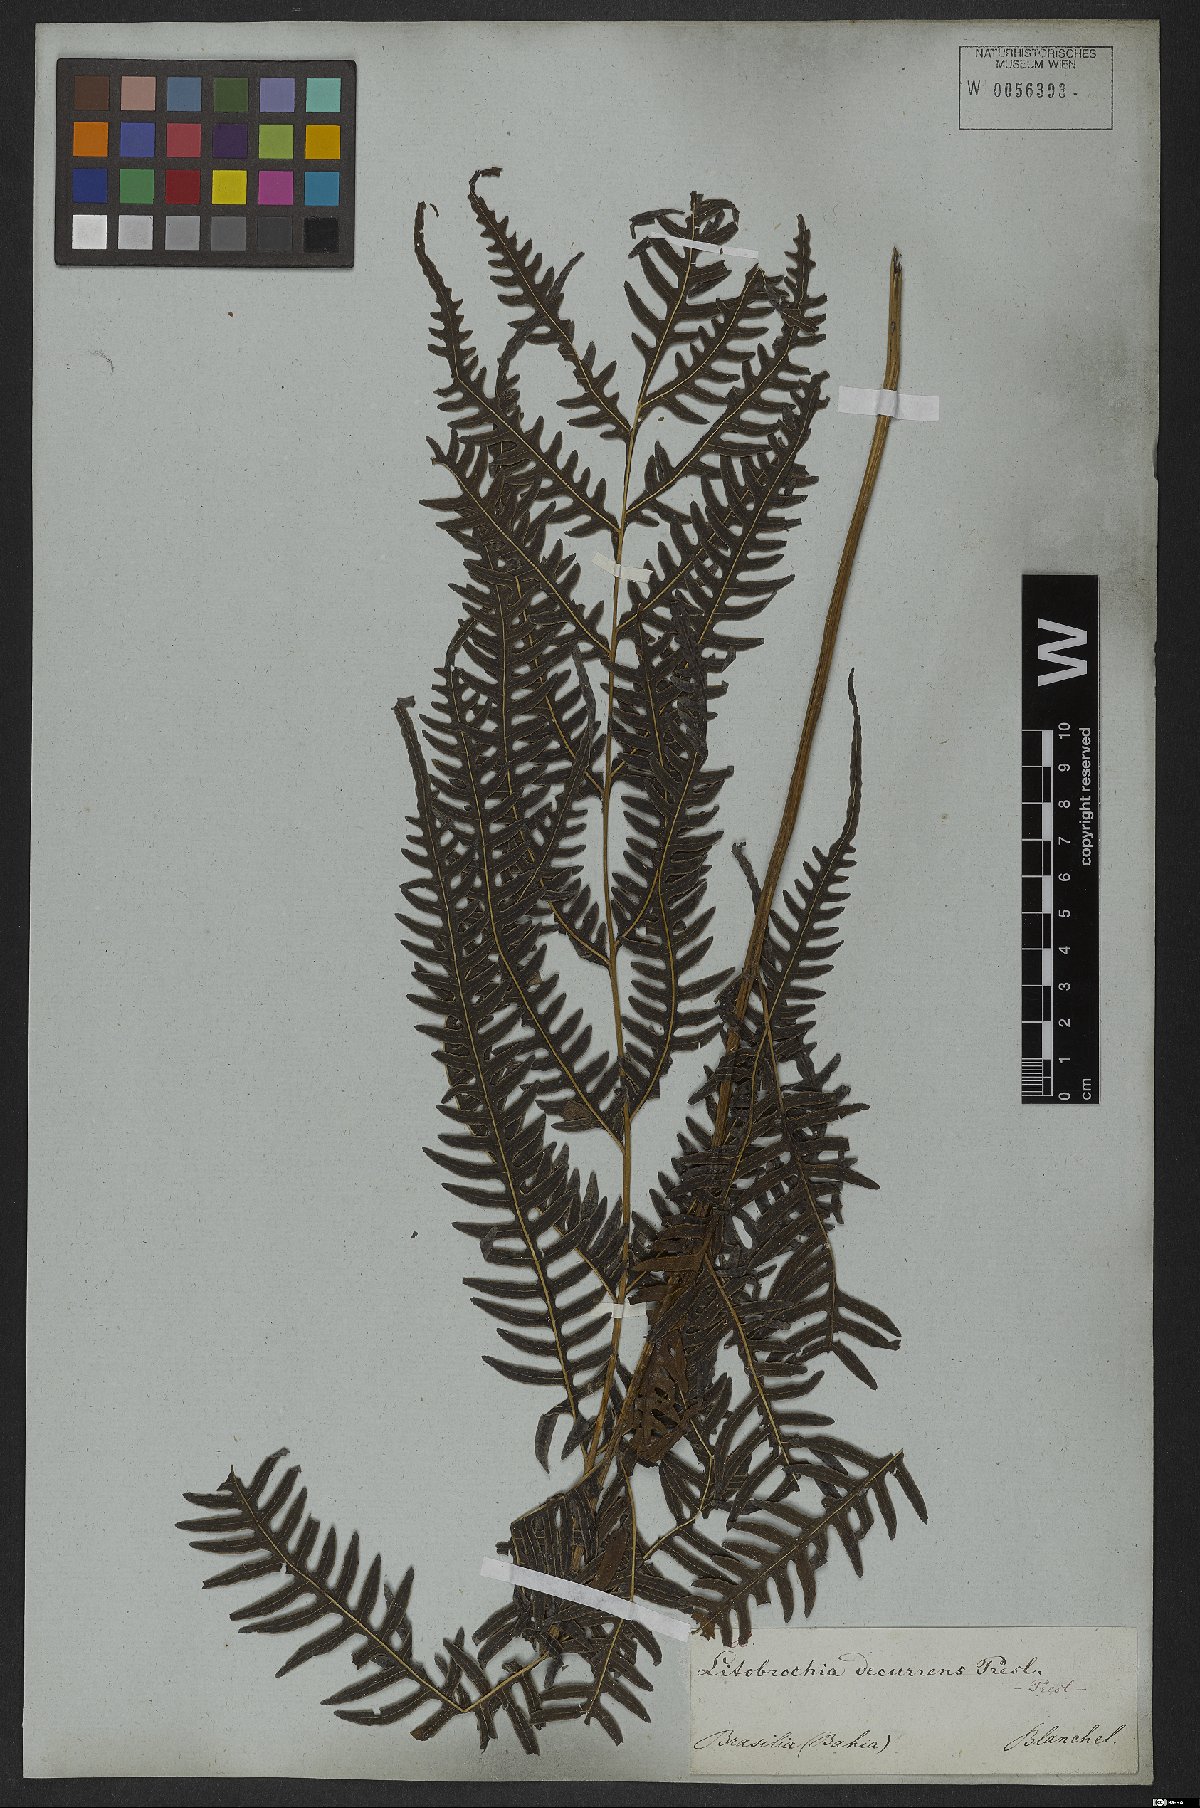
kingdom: Plantae
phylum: Tracheophyta
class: Polypodiopsida
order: Polypodiales
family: Pteridaceae
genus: Pteris
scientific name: Pteris decurrens
